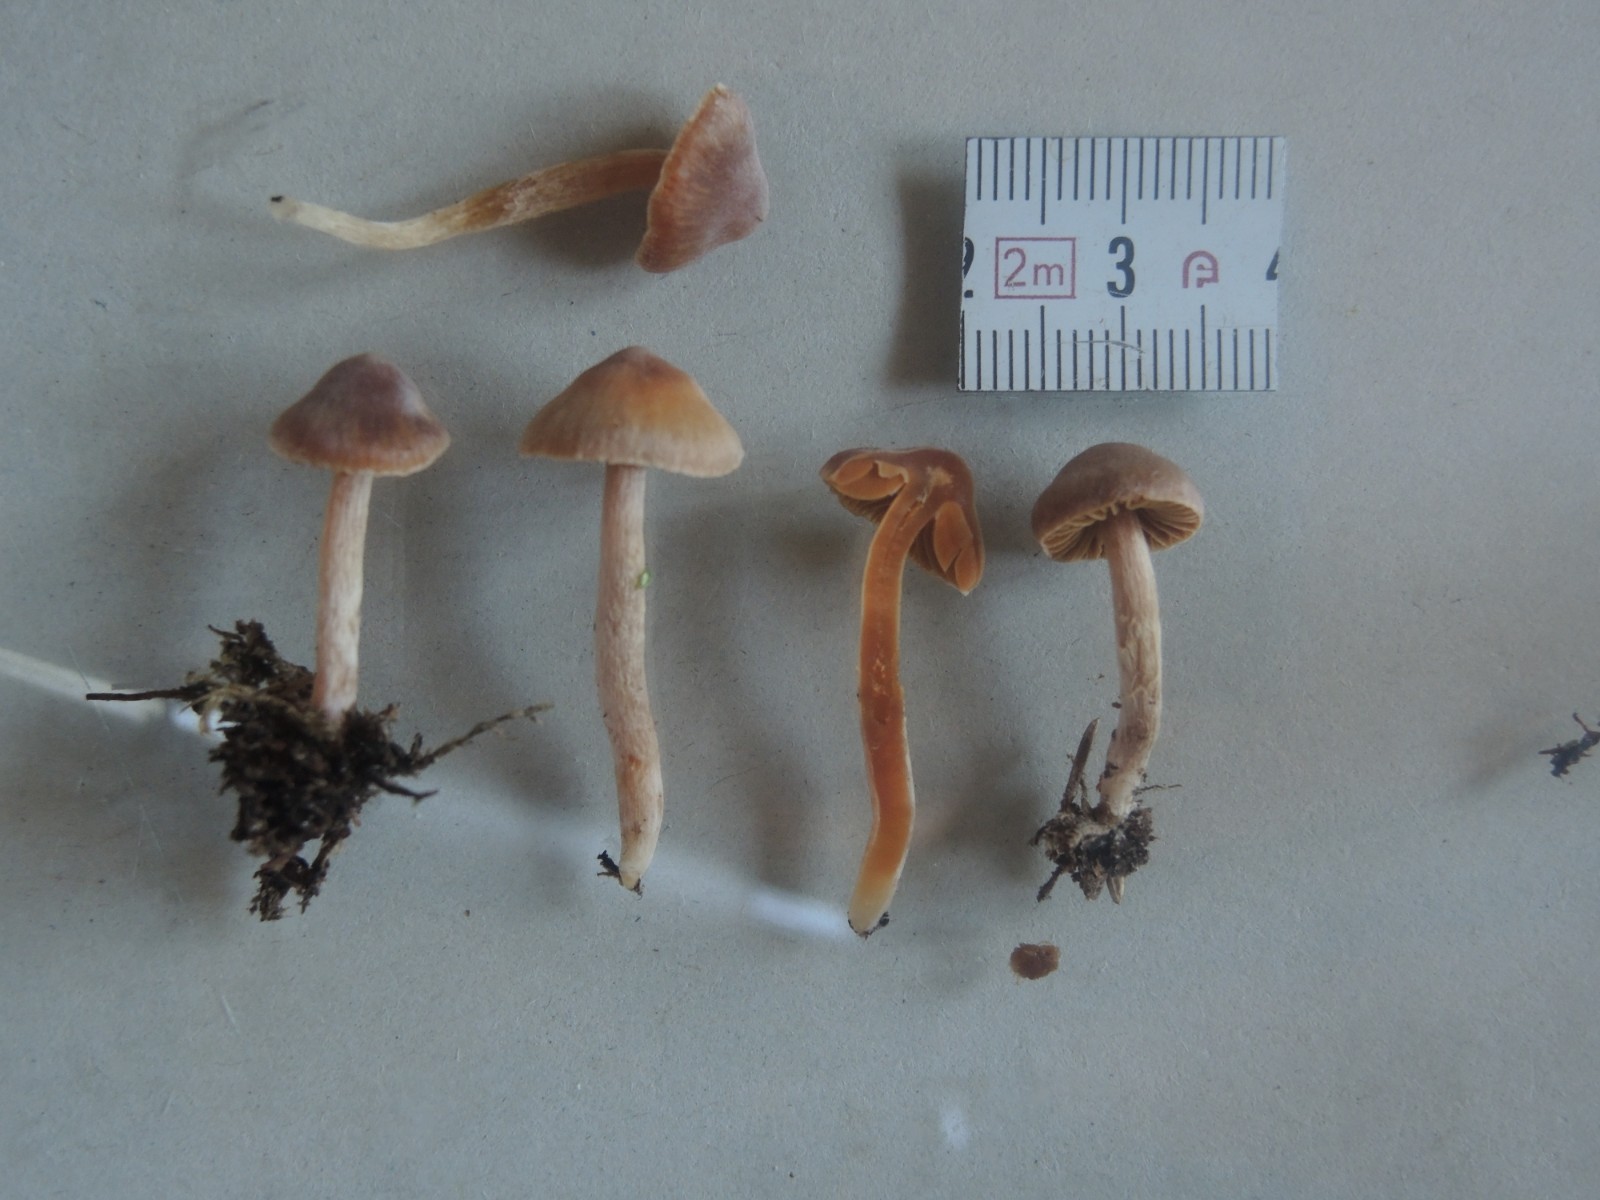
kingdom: Fungi
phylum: Basidiomycota
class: Agaricomycetes
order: Agaricales
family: Cortinariaceae
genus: Cortinarius
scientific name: Cortinarius aurae
